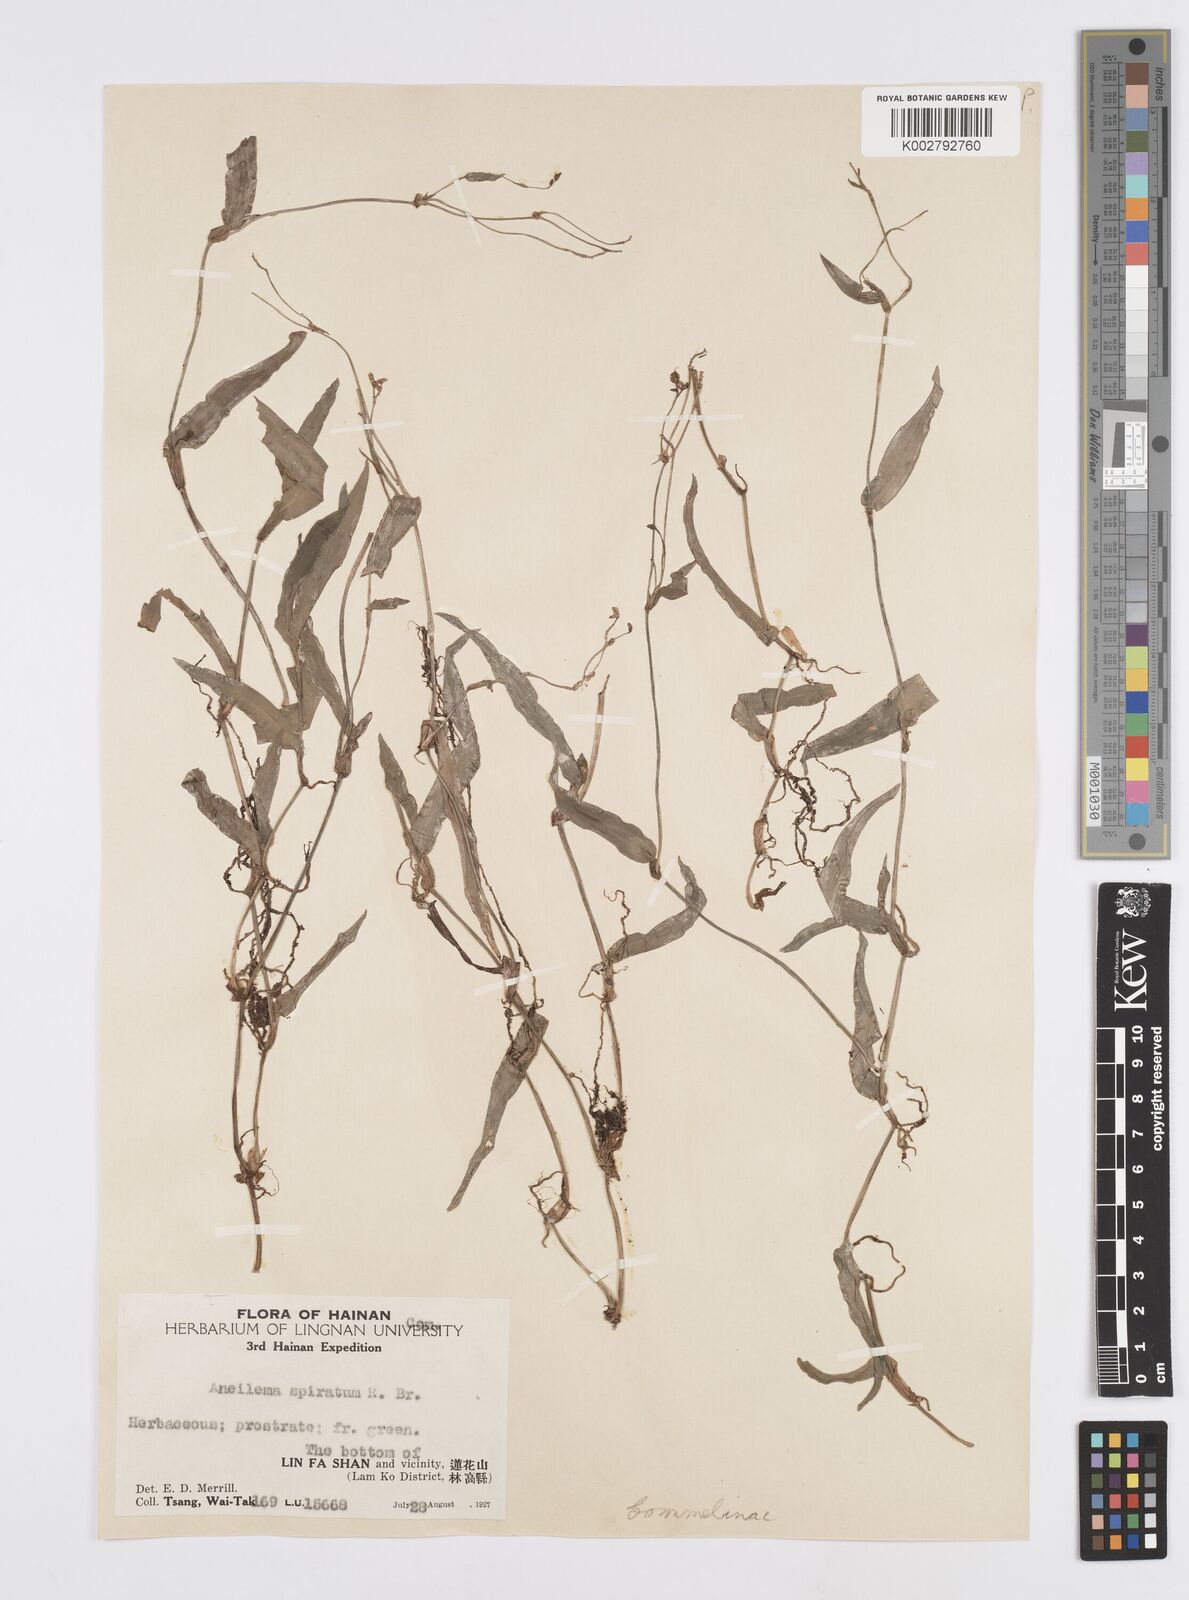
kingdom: Plantae
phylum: Tracheophyta
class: Liliopsida
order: Commelinales
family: Commelinaceae
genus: Murdannia
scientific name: Murdannia
